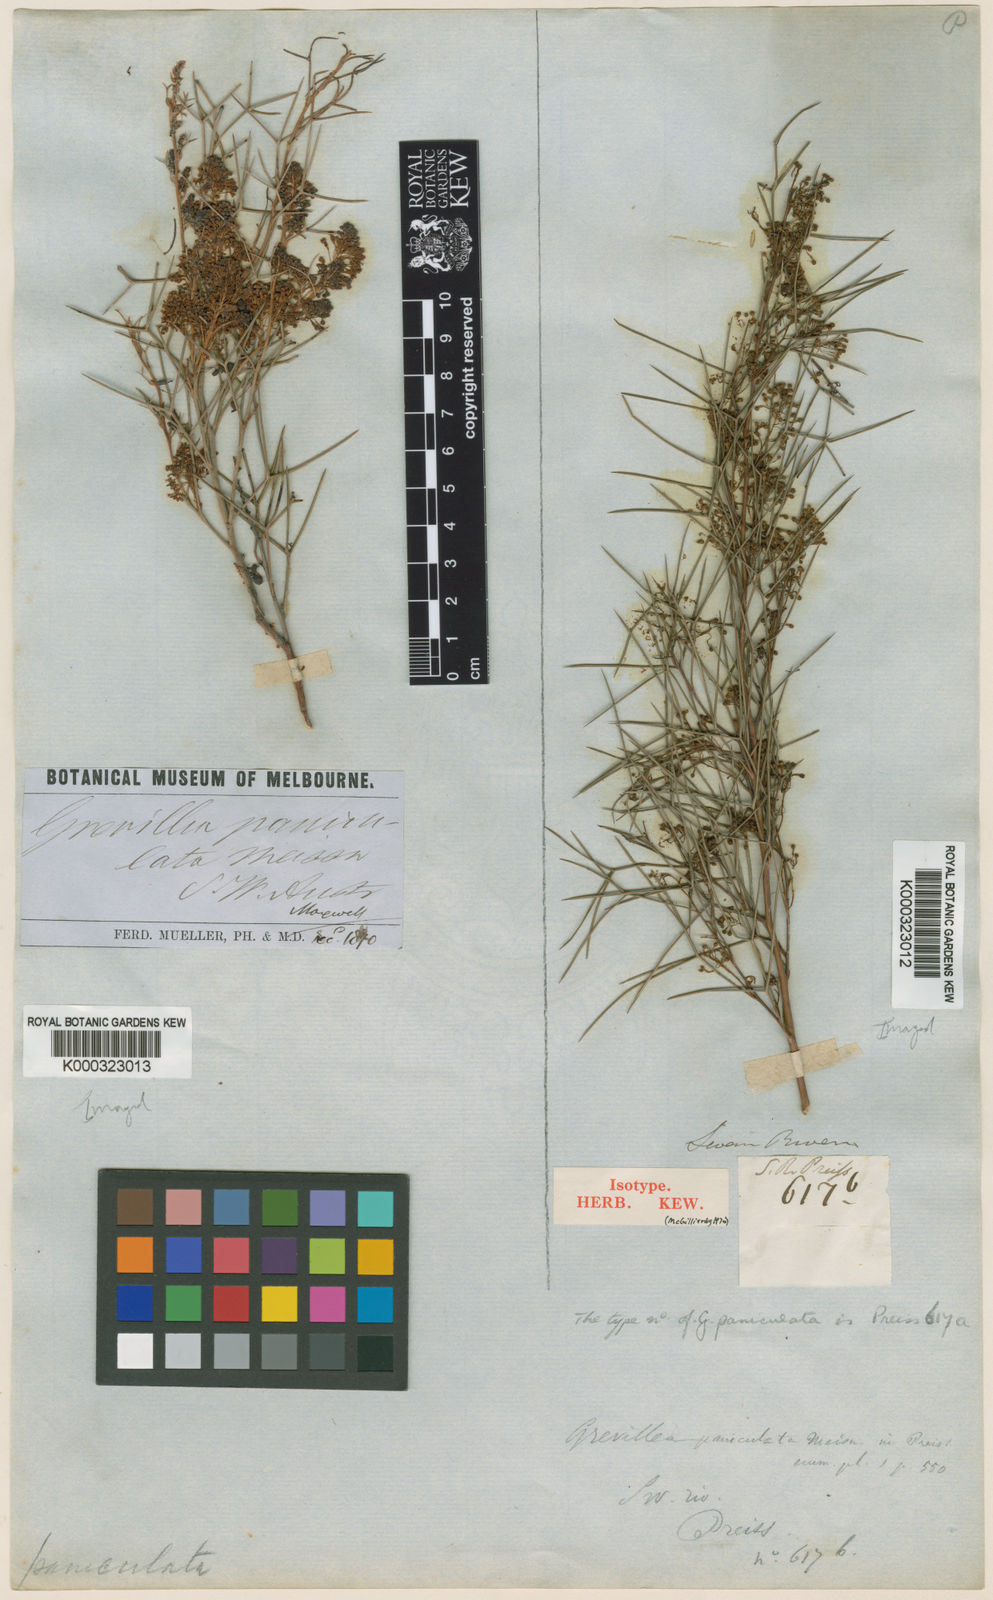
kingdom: Plantae
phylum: Tracheophyta
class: Magnoliopsida
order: Proteales
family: Proteaceae
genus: Grevillea
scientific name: Grevillea paniculata
